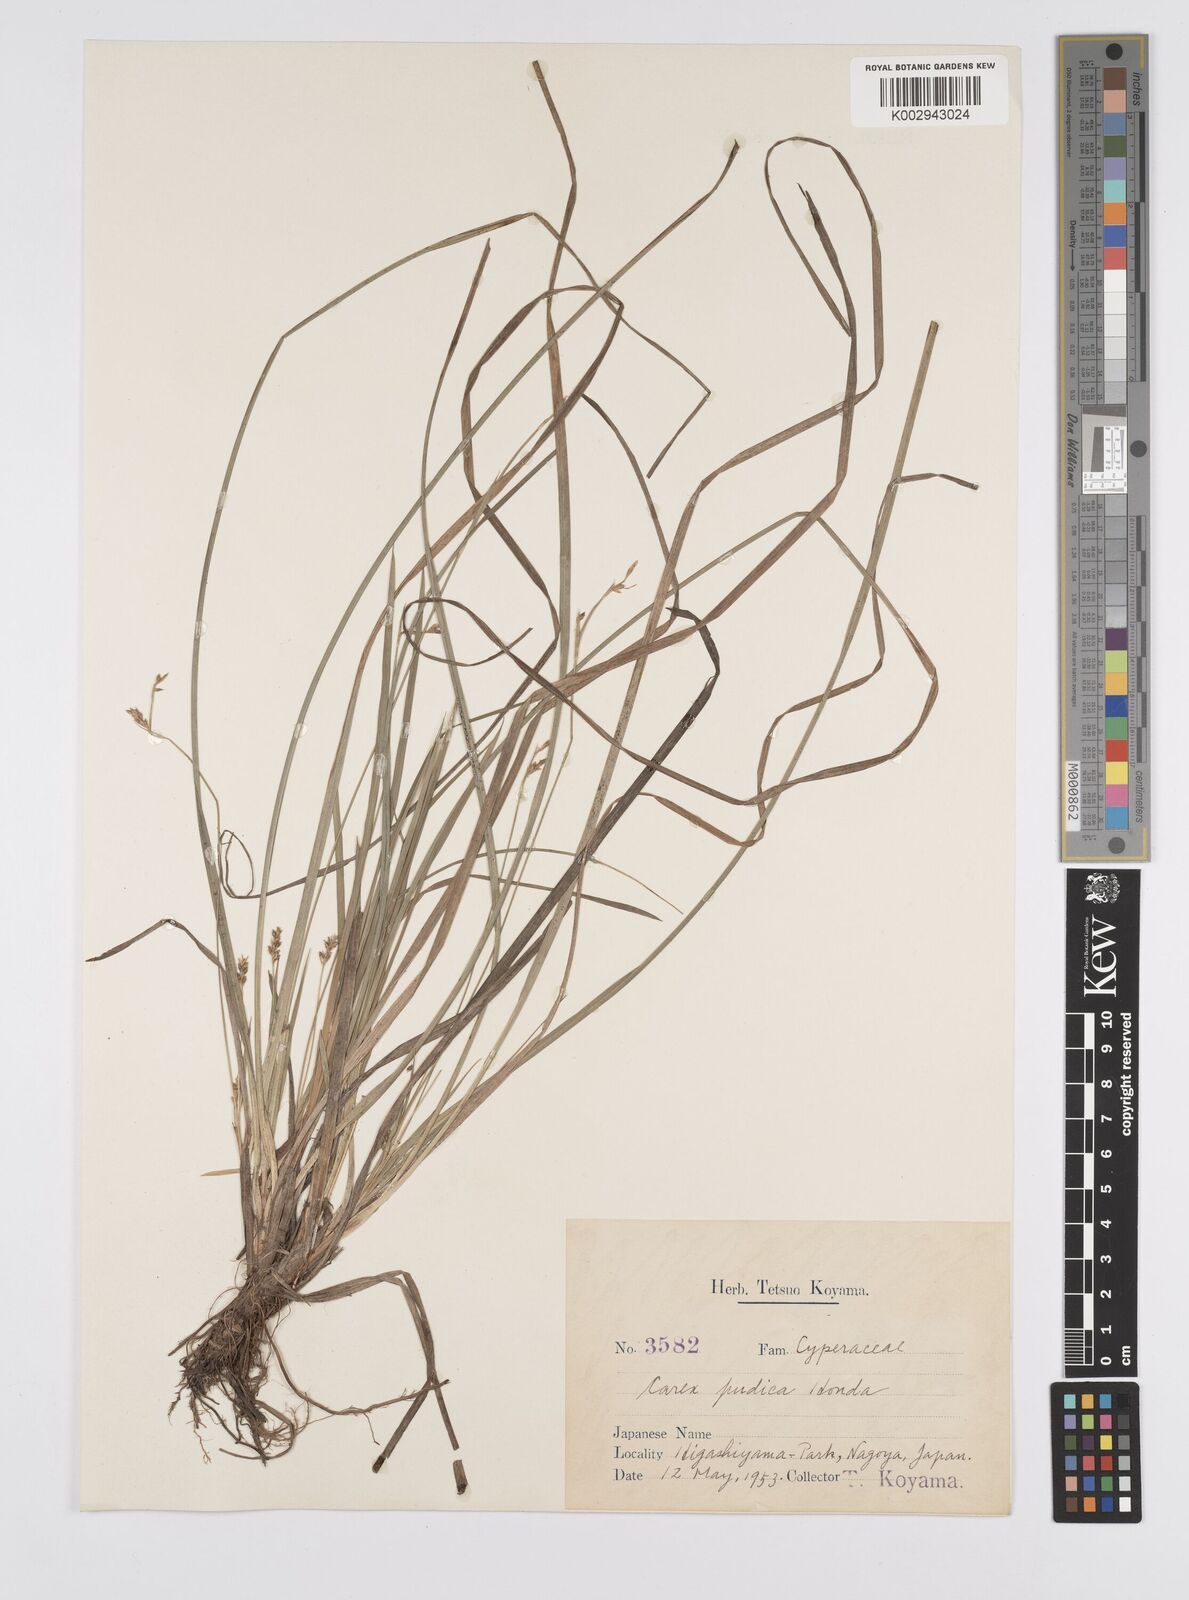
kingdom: Plantae
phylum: Tracheophyta
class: Liliopsida
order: Poales
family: Cyperaceae
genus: Carex
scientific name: Carex pudica
